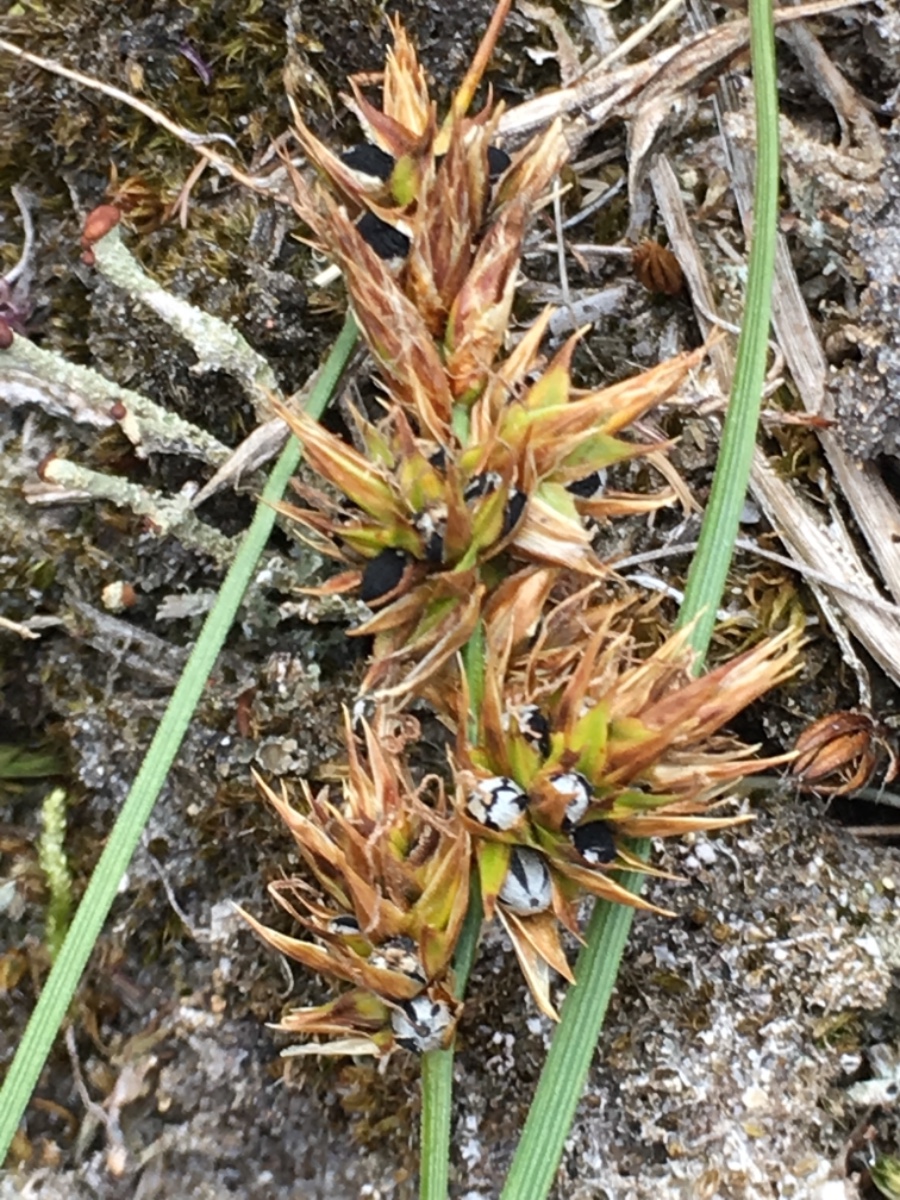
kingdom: Fungi
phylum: Basidiomycota
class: Ustilaginomycetes
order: Ustilaginales
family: Anthracoideaceae
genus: Anthracoidea
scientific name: Anthracoidea arenariae
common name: sandstar-brand
